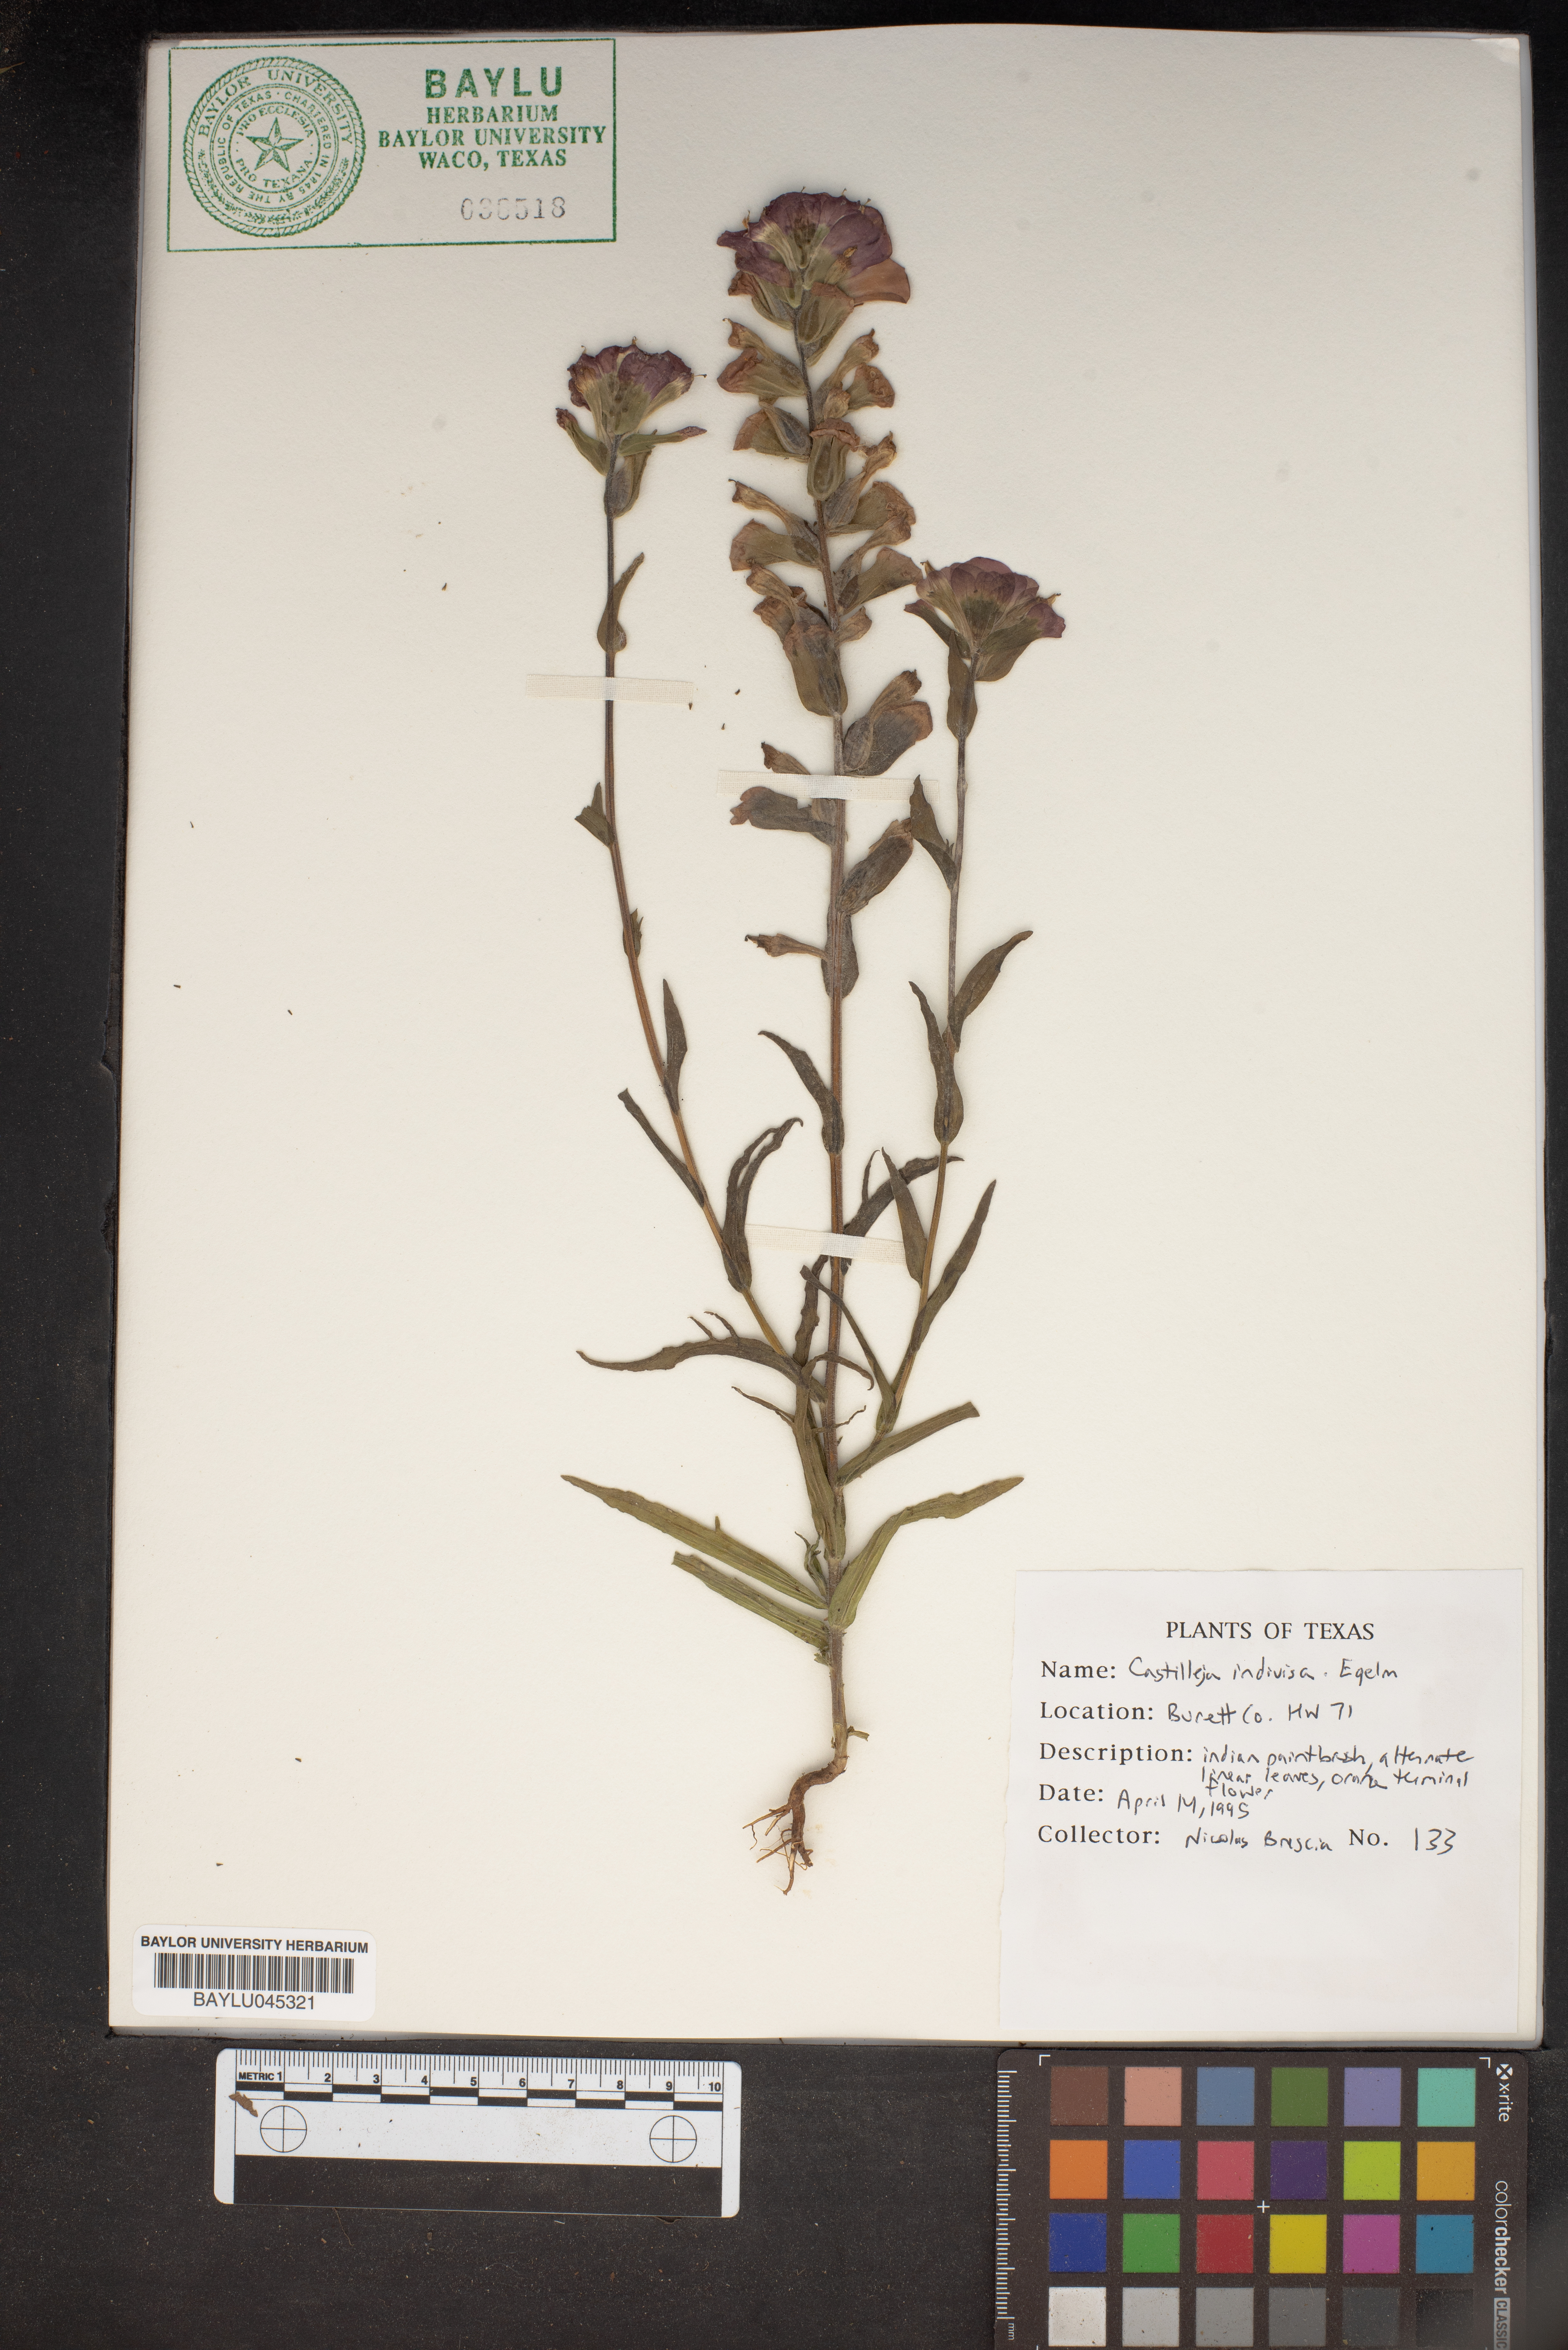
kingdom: Plantae
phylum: Tracheophyta
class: Magnoliopsida
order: Lamiales
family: Orobanchaceae
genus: Castilleja
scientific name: Castilleja indivisa
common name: Texas paintbrush
